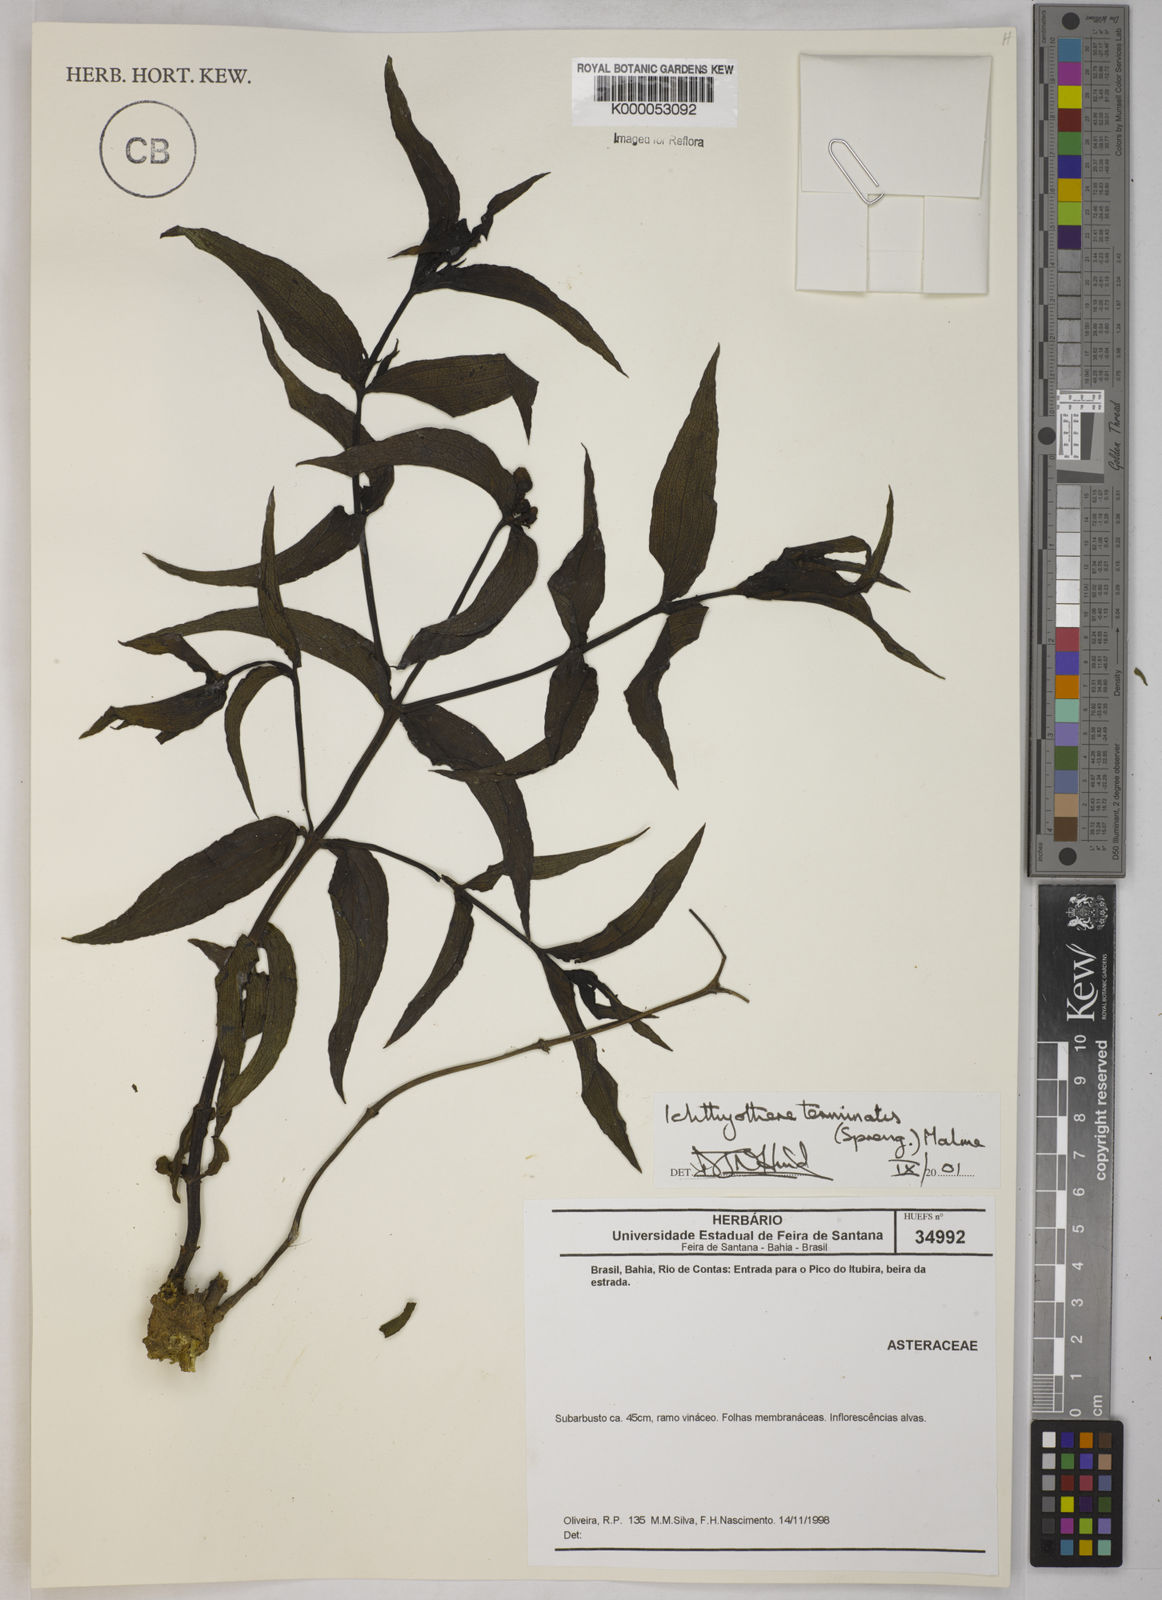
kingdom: Plantae
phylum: Tracheophyta
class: Magnoliopsida
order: Asterales
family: Asteraceae
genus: Ichthyothere
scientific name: Ichthyothere terminalis
